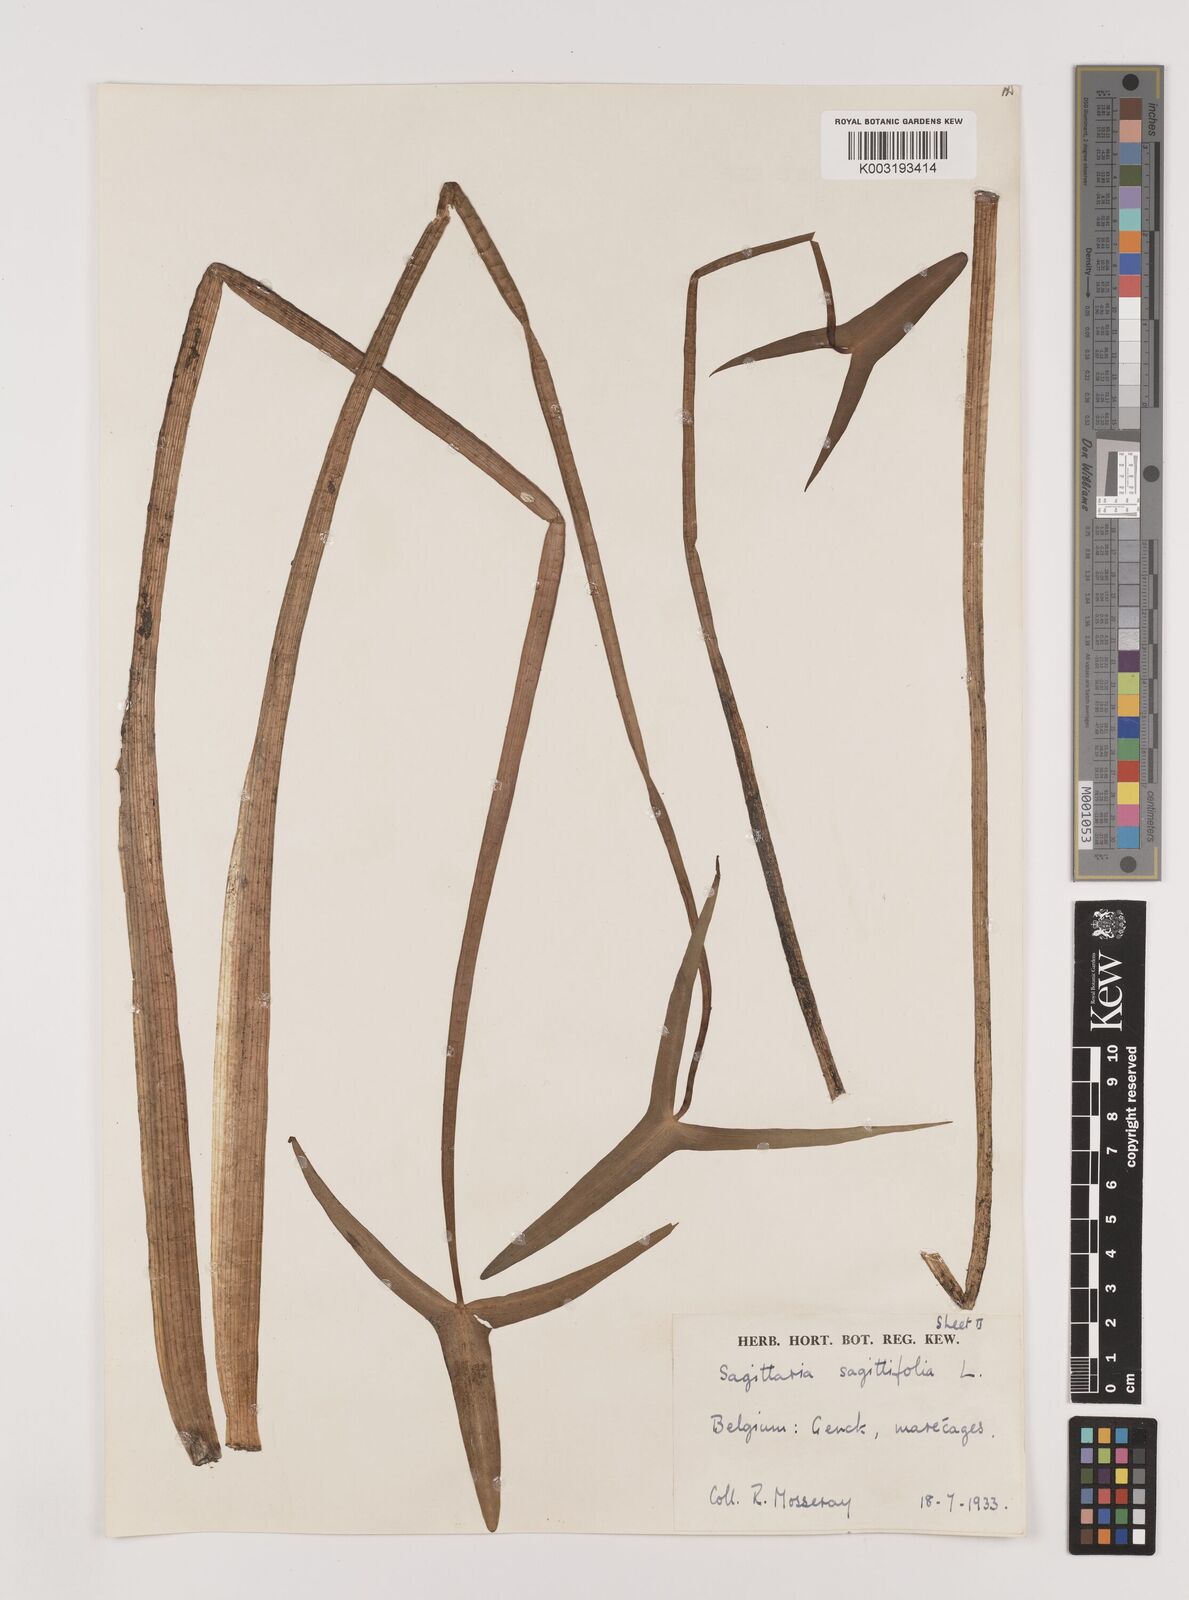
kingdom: Plantae
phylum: Tracheophyta
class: Liliopsida
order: Alismatales
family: Alismataceae
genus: Sagittaria
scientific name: Sagittaria sagittifolia
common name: Arrowhead
